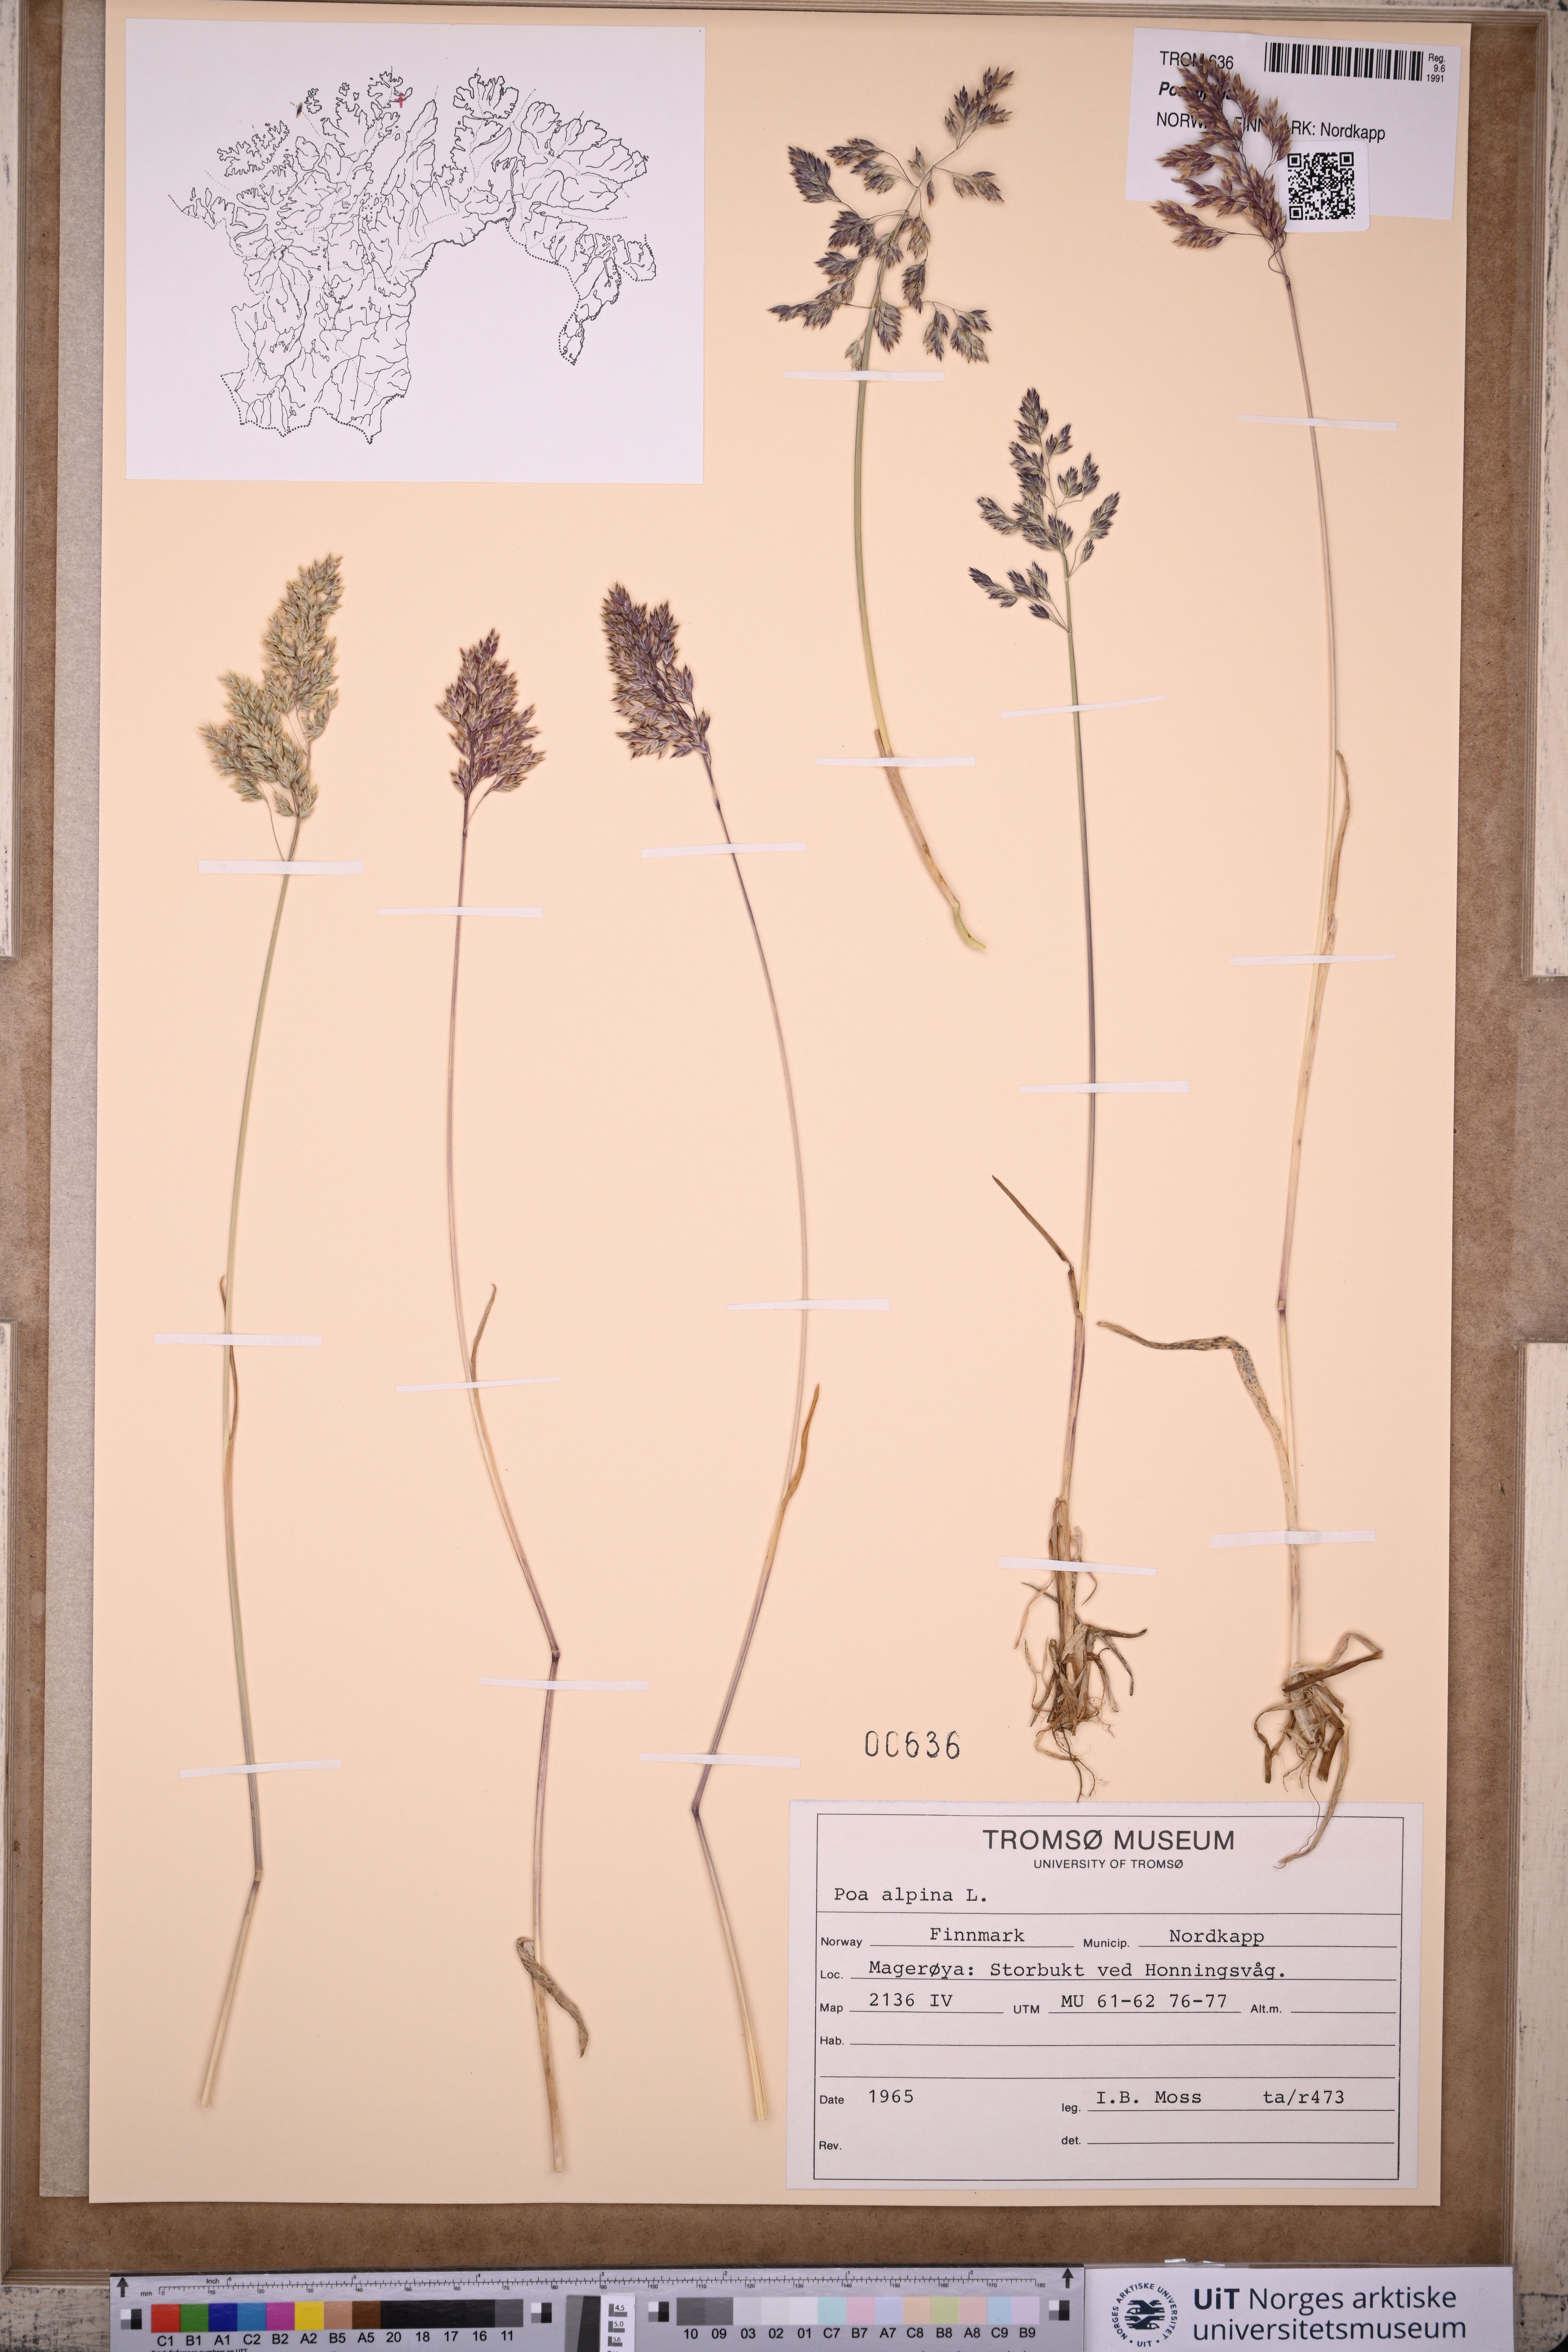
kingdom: Plantae
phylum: Tracheophyta
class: Liliopsida
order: Poales
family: Poaceae
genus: Poa
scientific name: Poa alpina
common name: Alpine bluegrass
